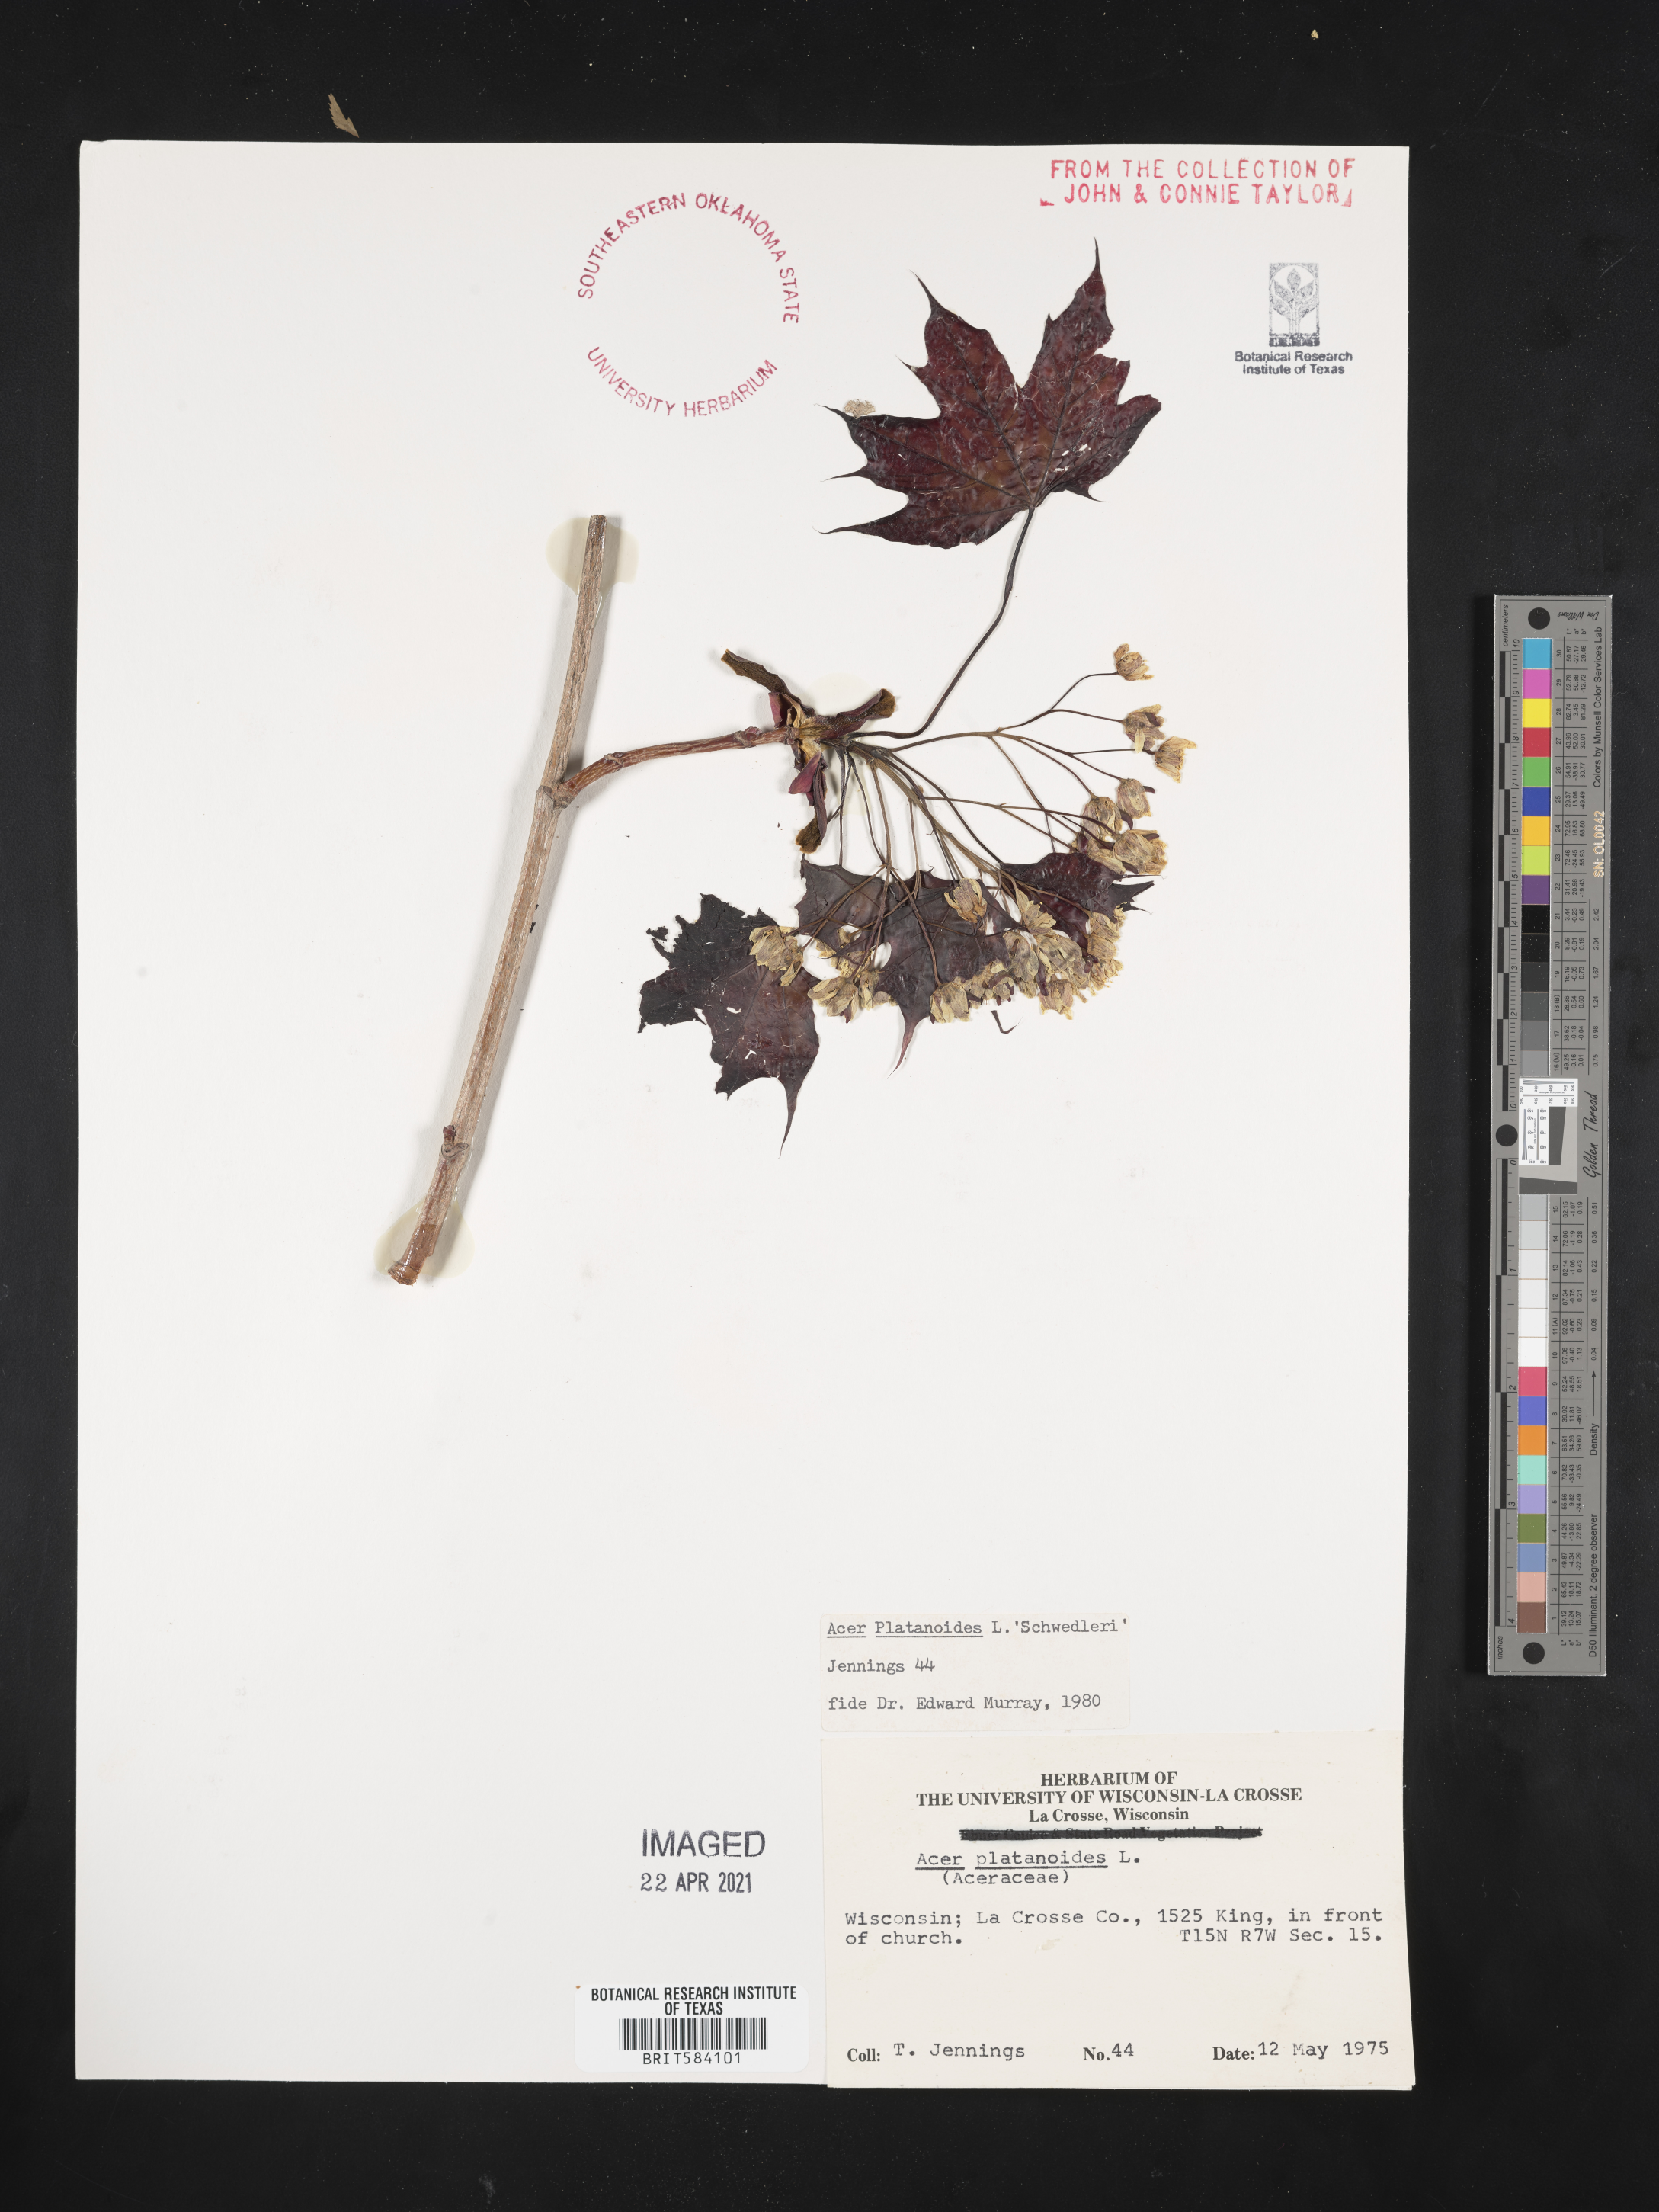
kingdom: Plantae
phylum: Tracheophyta
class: Magnoliopsida
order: Sapindales
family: Sapindaceae
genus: Acer
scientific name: Acer platanoides
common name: Norway maple
